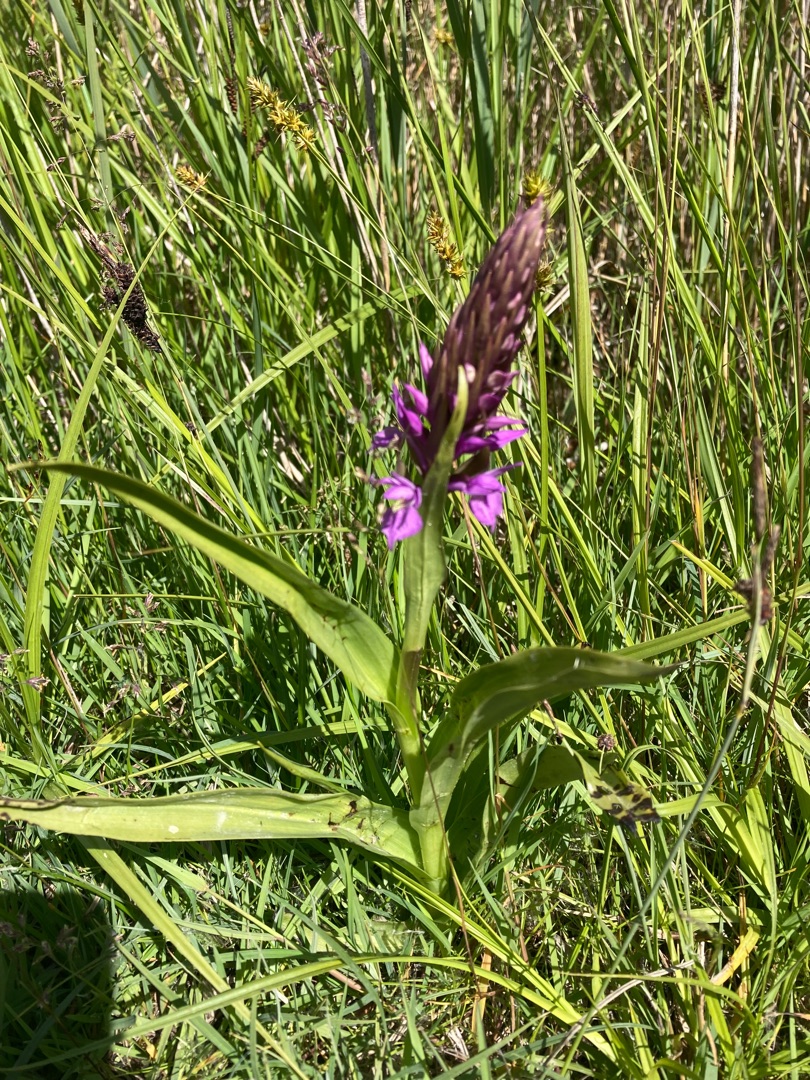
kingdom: Plantae
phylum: Tracheophyta
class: Liliopsida
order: Asparagales
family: Orchidaceae
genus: Dactylorhiza
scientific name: Dactylorhiza majalis
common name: Priklæbet gøgeurt
